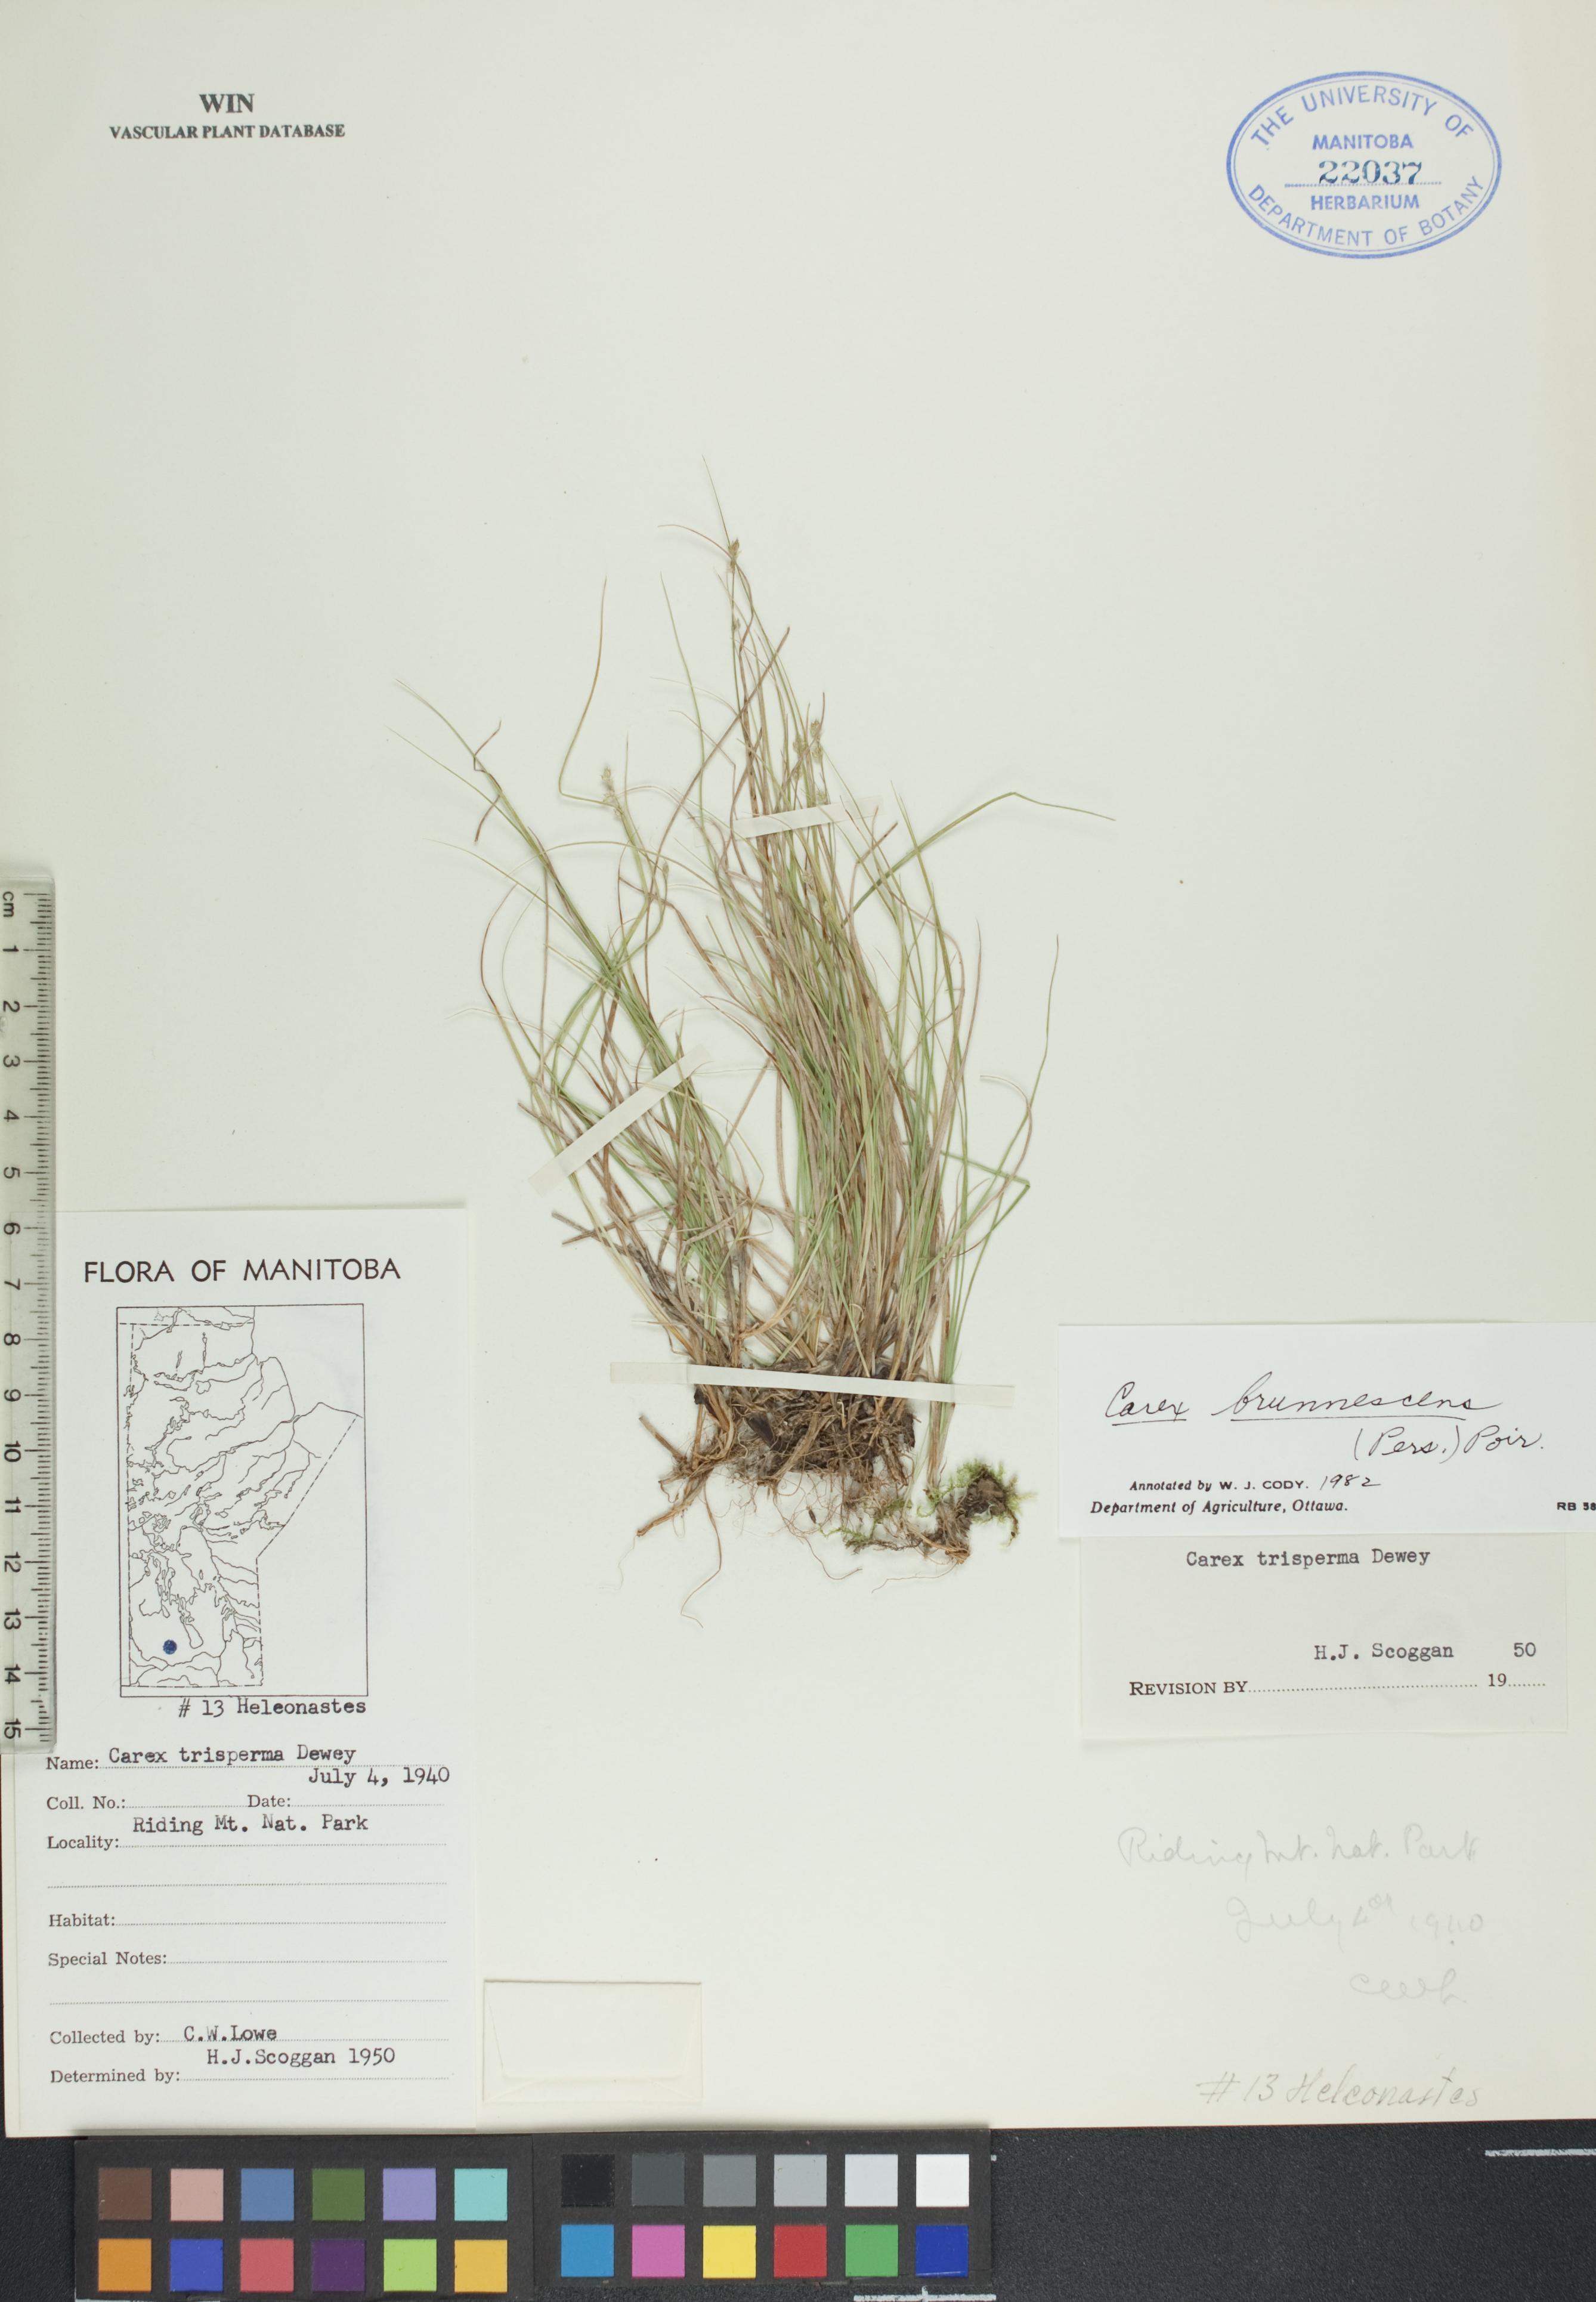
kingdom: Plantae
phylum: Tracheophyta
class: Liliopsida
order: Poales
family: Cyperaceae
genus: Carex
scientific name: Carex brunnescens
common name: Brown sedge
